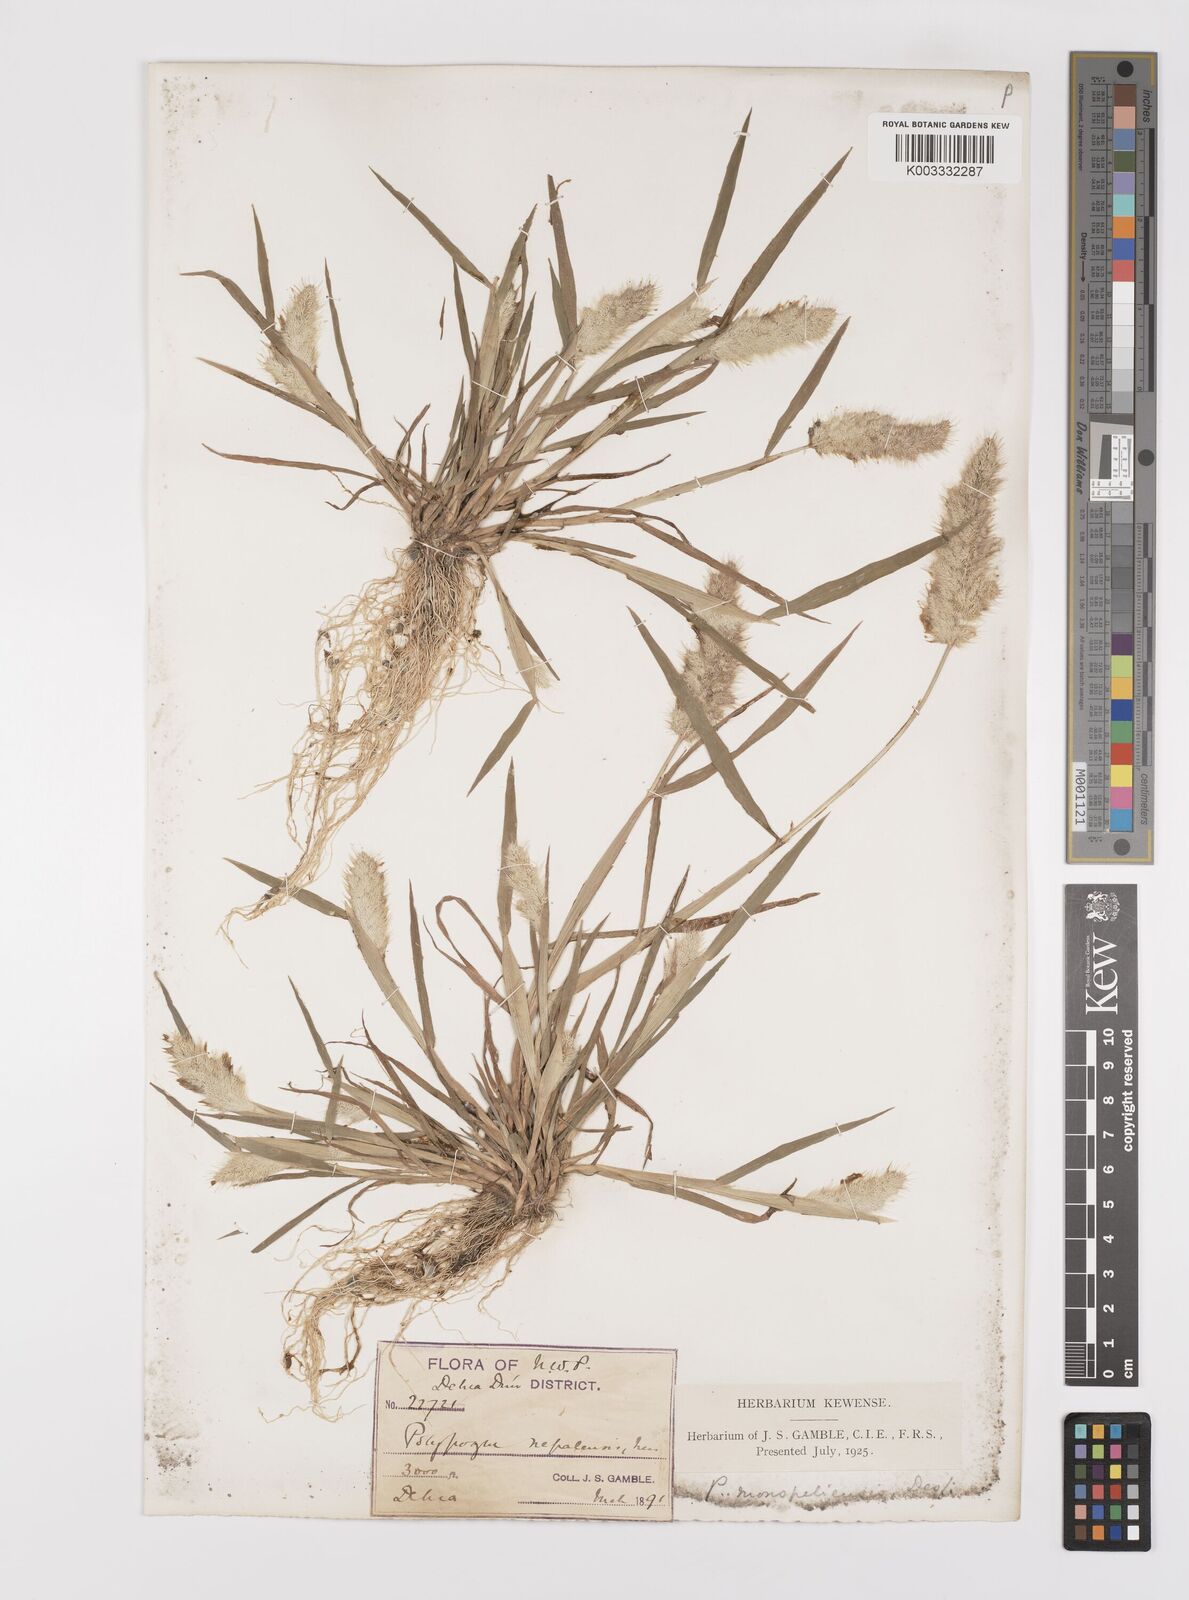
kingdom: Plantae
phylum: Tracheophyta
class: Liliopsida
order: Poales
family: Poaceae
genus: Polypogon
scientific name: Polypogon monspeliensis
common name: Annual rabbitsfoot grass
